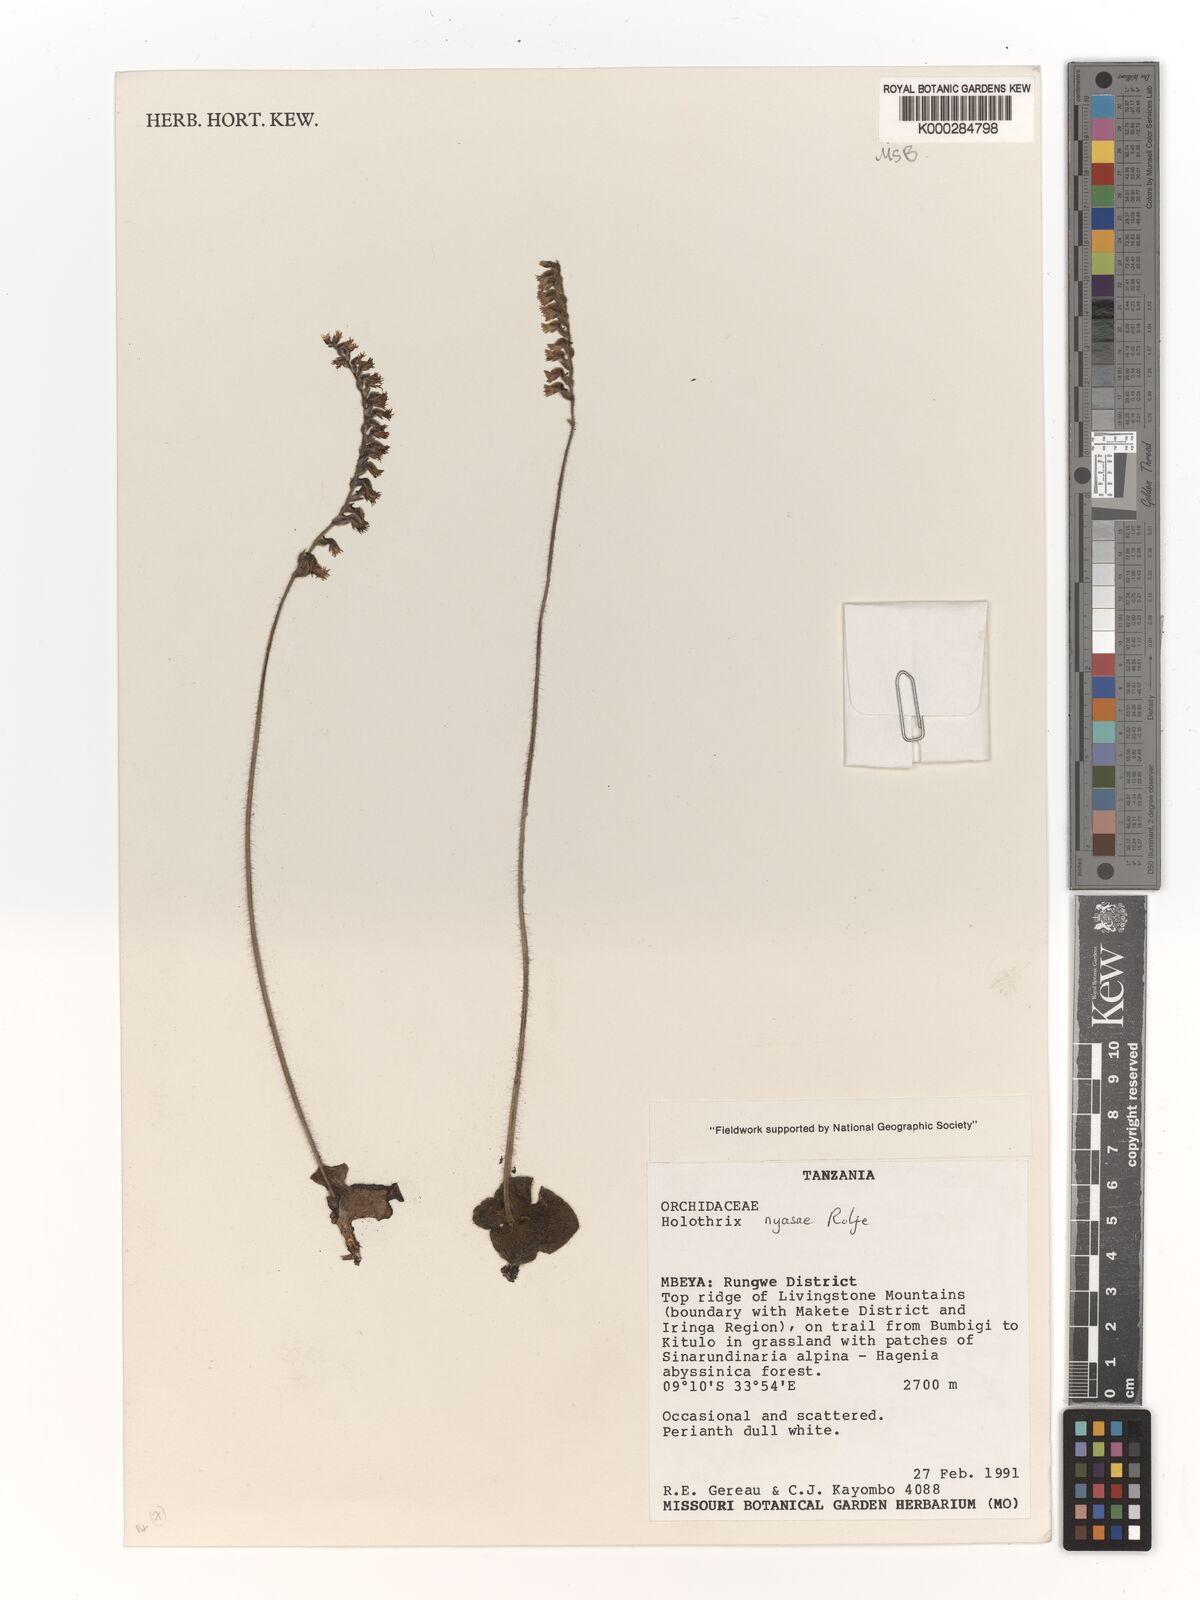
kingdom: Plantae
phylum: Tracheophyta
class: Liliopsida
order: Asparagales
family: Orchidaceae
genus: Holothrix
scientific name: Holothrix nyasae
